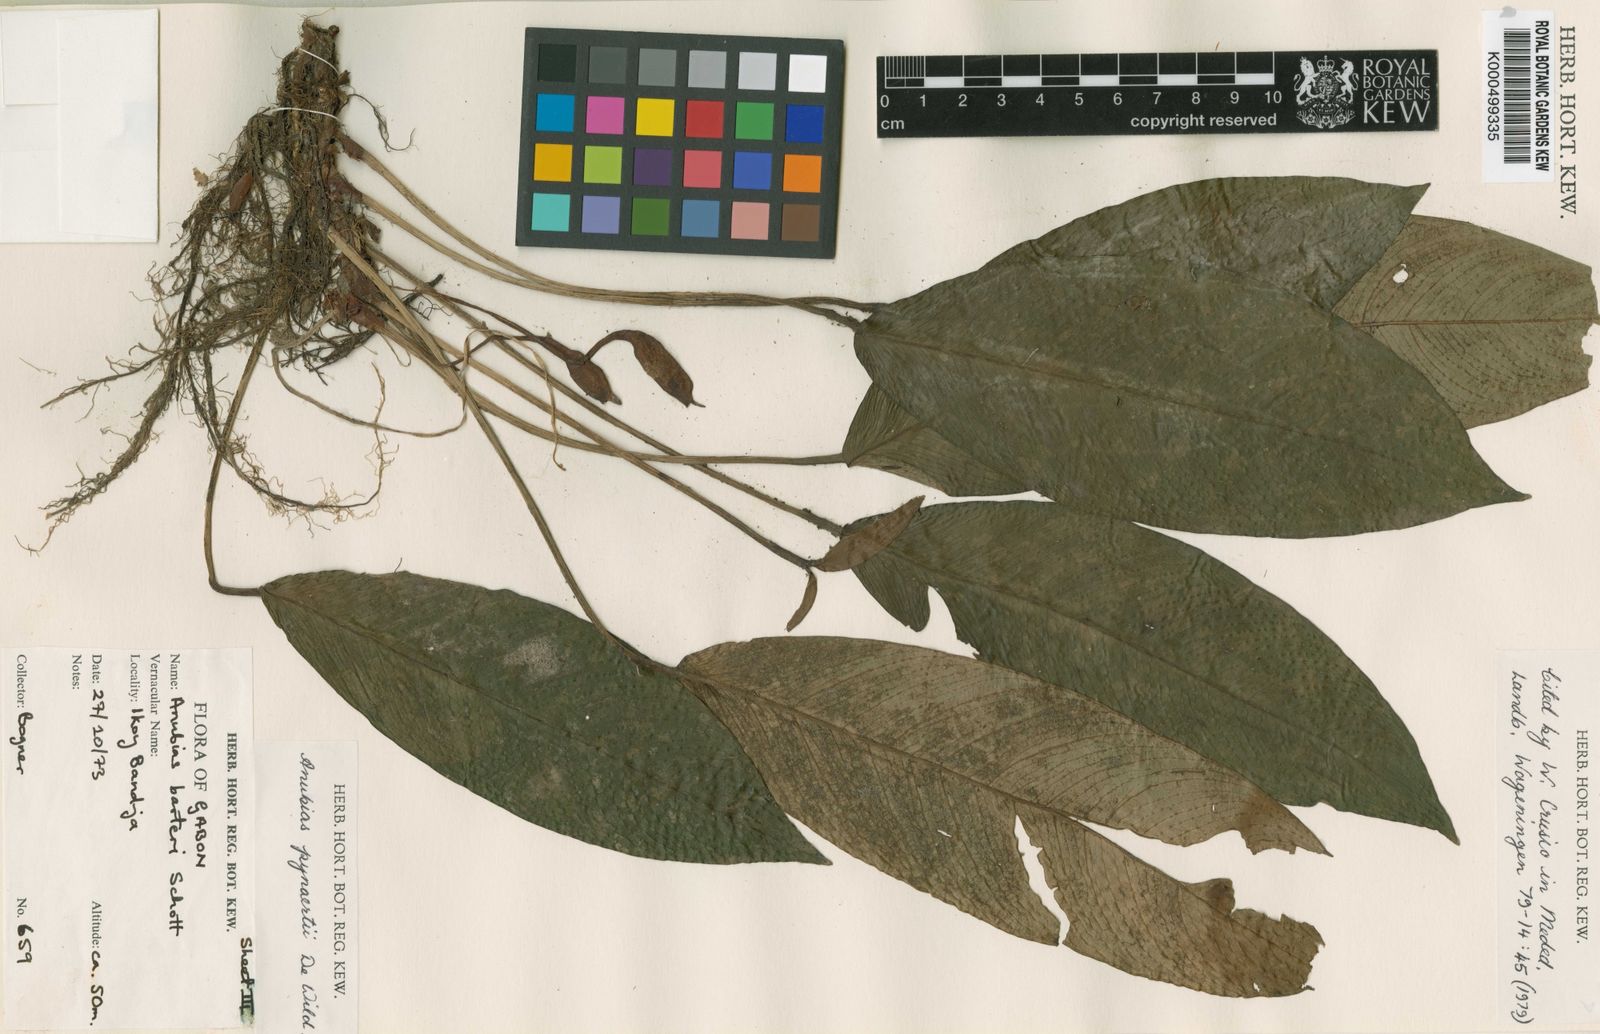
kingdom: Plantae
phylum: Tracheophyta
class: Liliopsida
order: Alismatales
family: Araceae
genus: Anubias
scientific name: Anubias pynaertii
